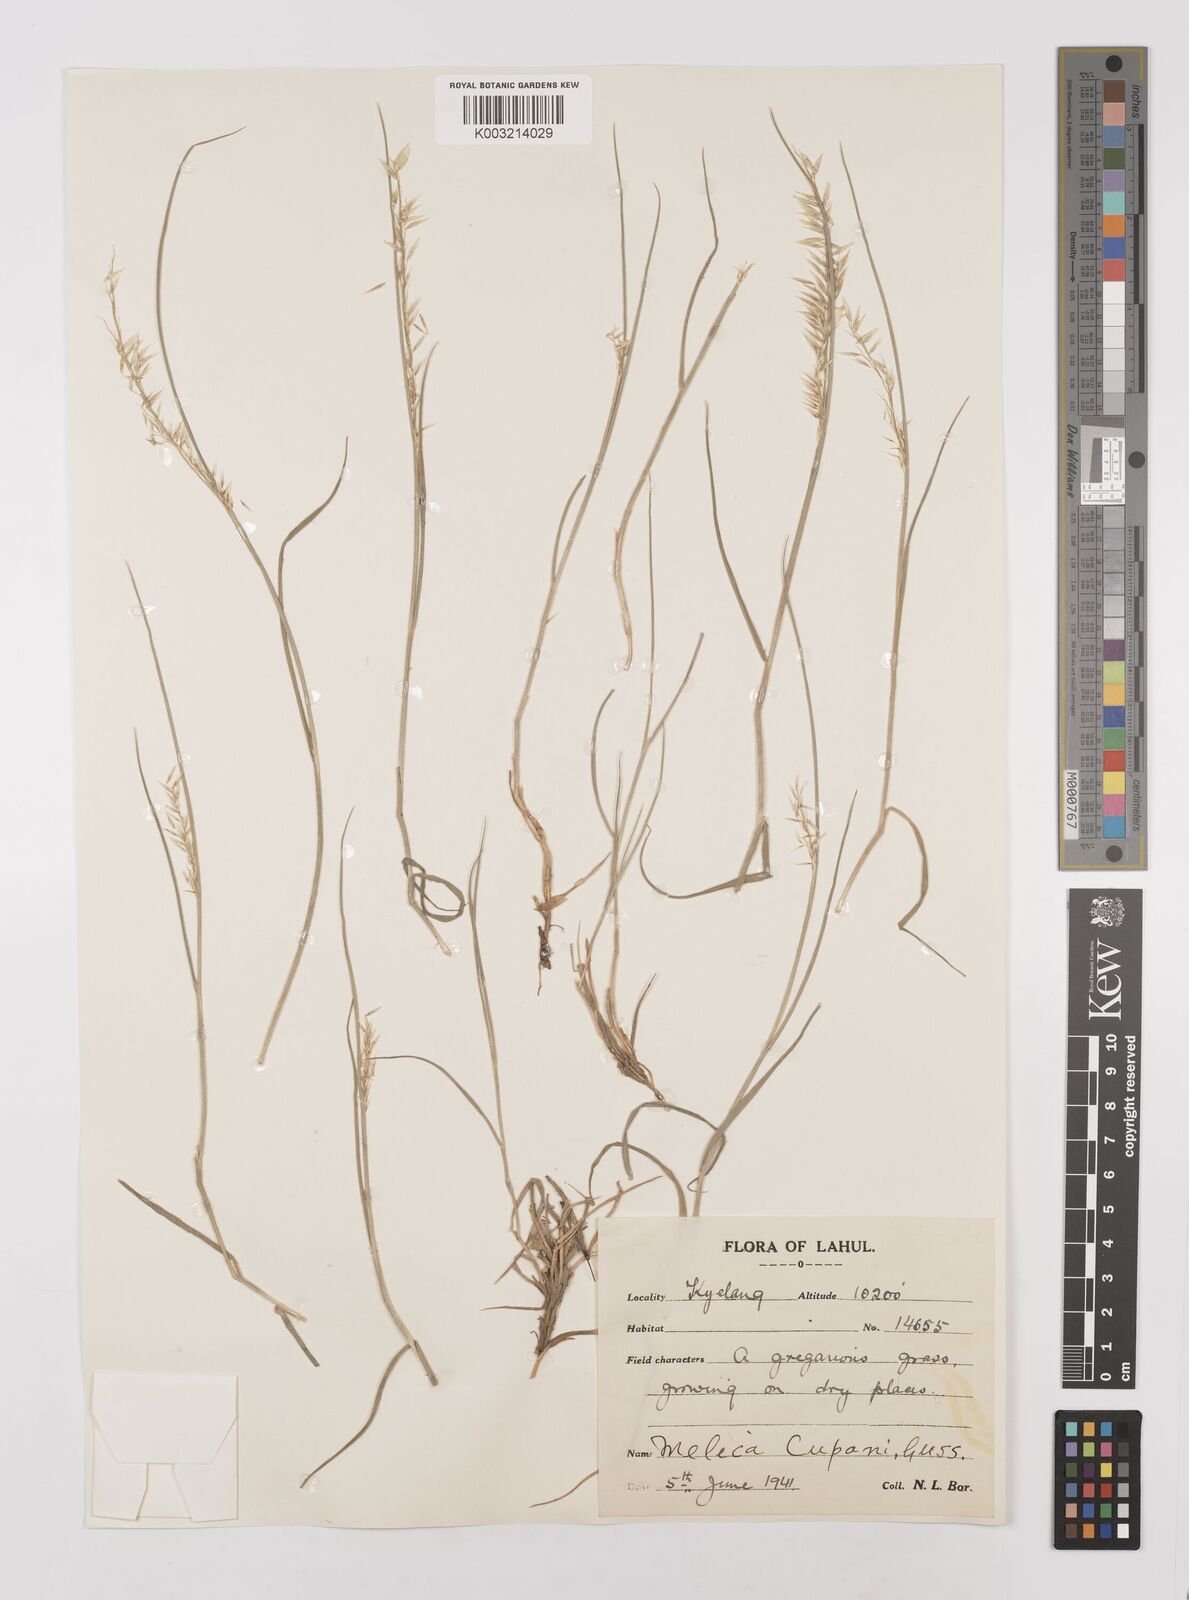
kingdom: Plantae
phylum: Tracheophyta
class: Liliopsida
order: Poales
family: Poaceae
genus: Melica
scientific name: Melica persica
